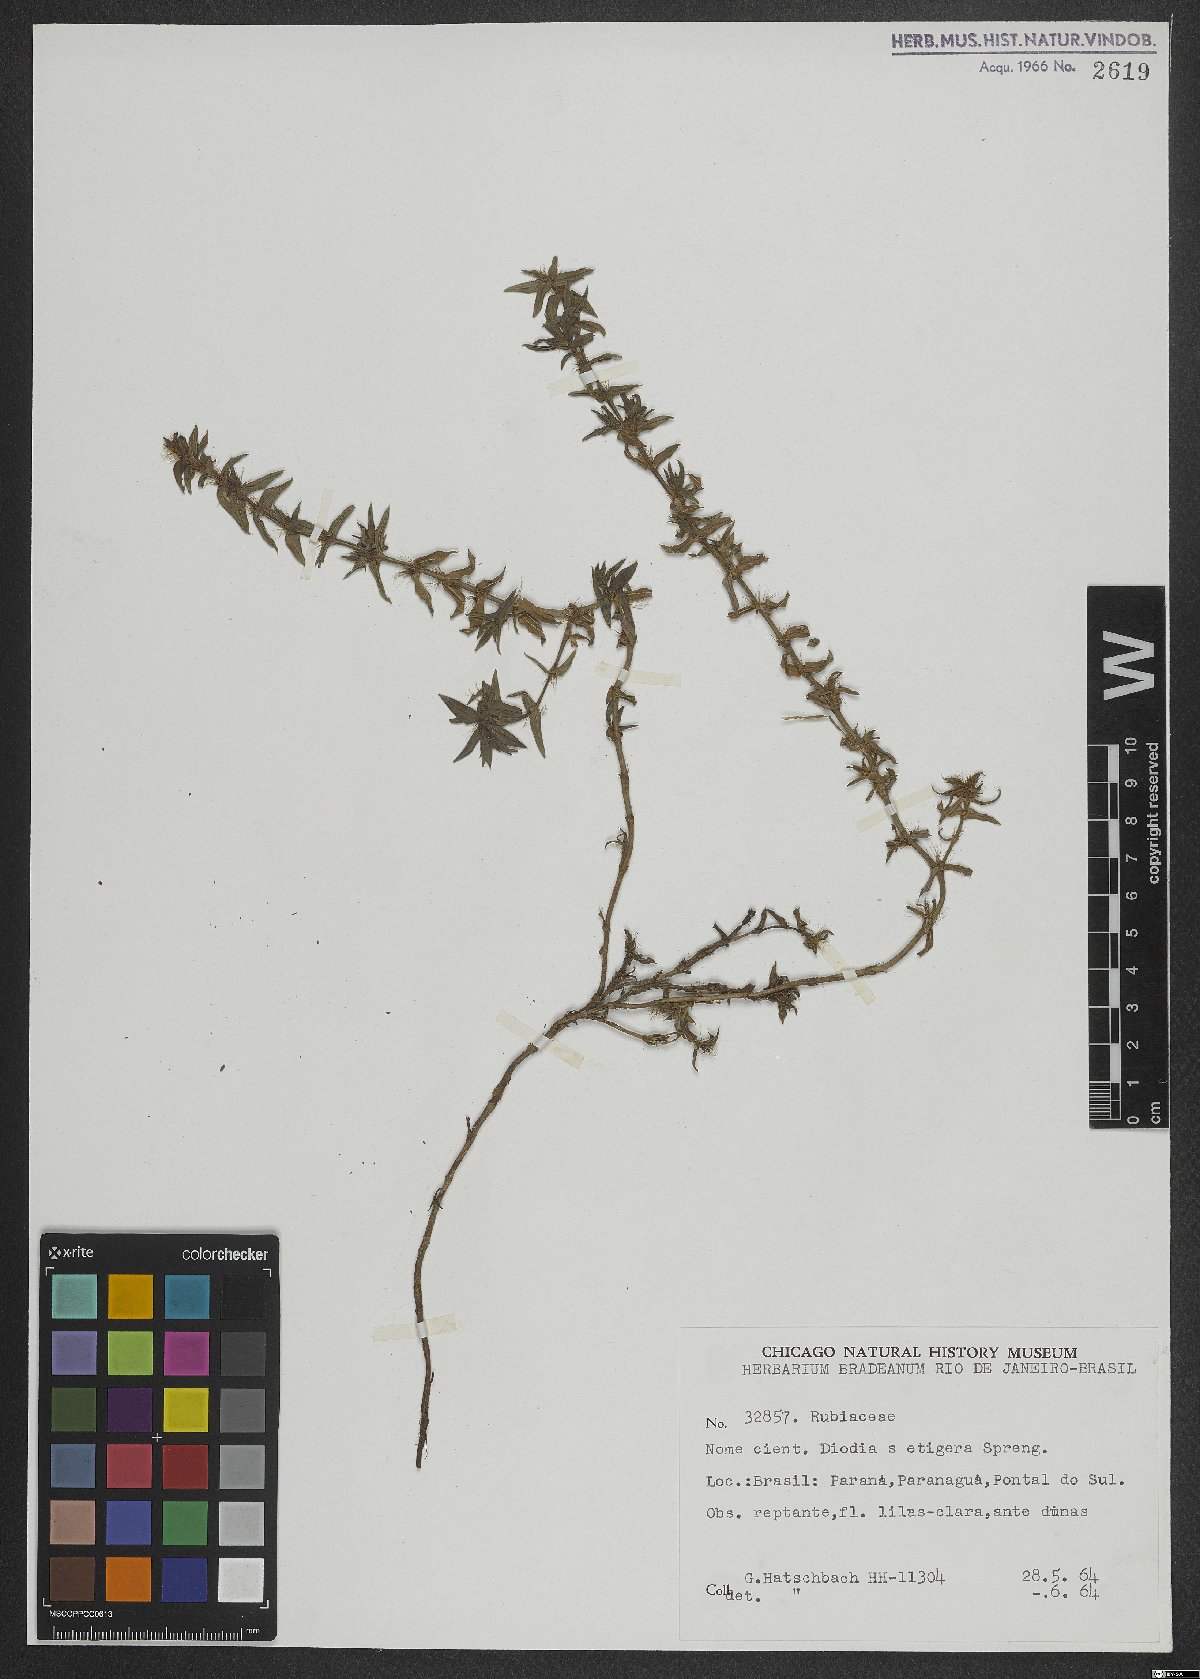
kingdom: Plantae
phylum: Tracheophyta
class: Magnoliopsida
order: Gentianales
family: Rubiaceae
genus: Hexasepalum
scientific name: Hexasepalum apiculatum
